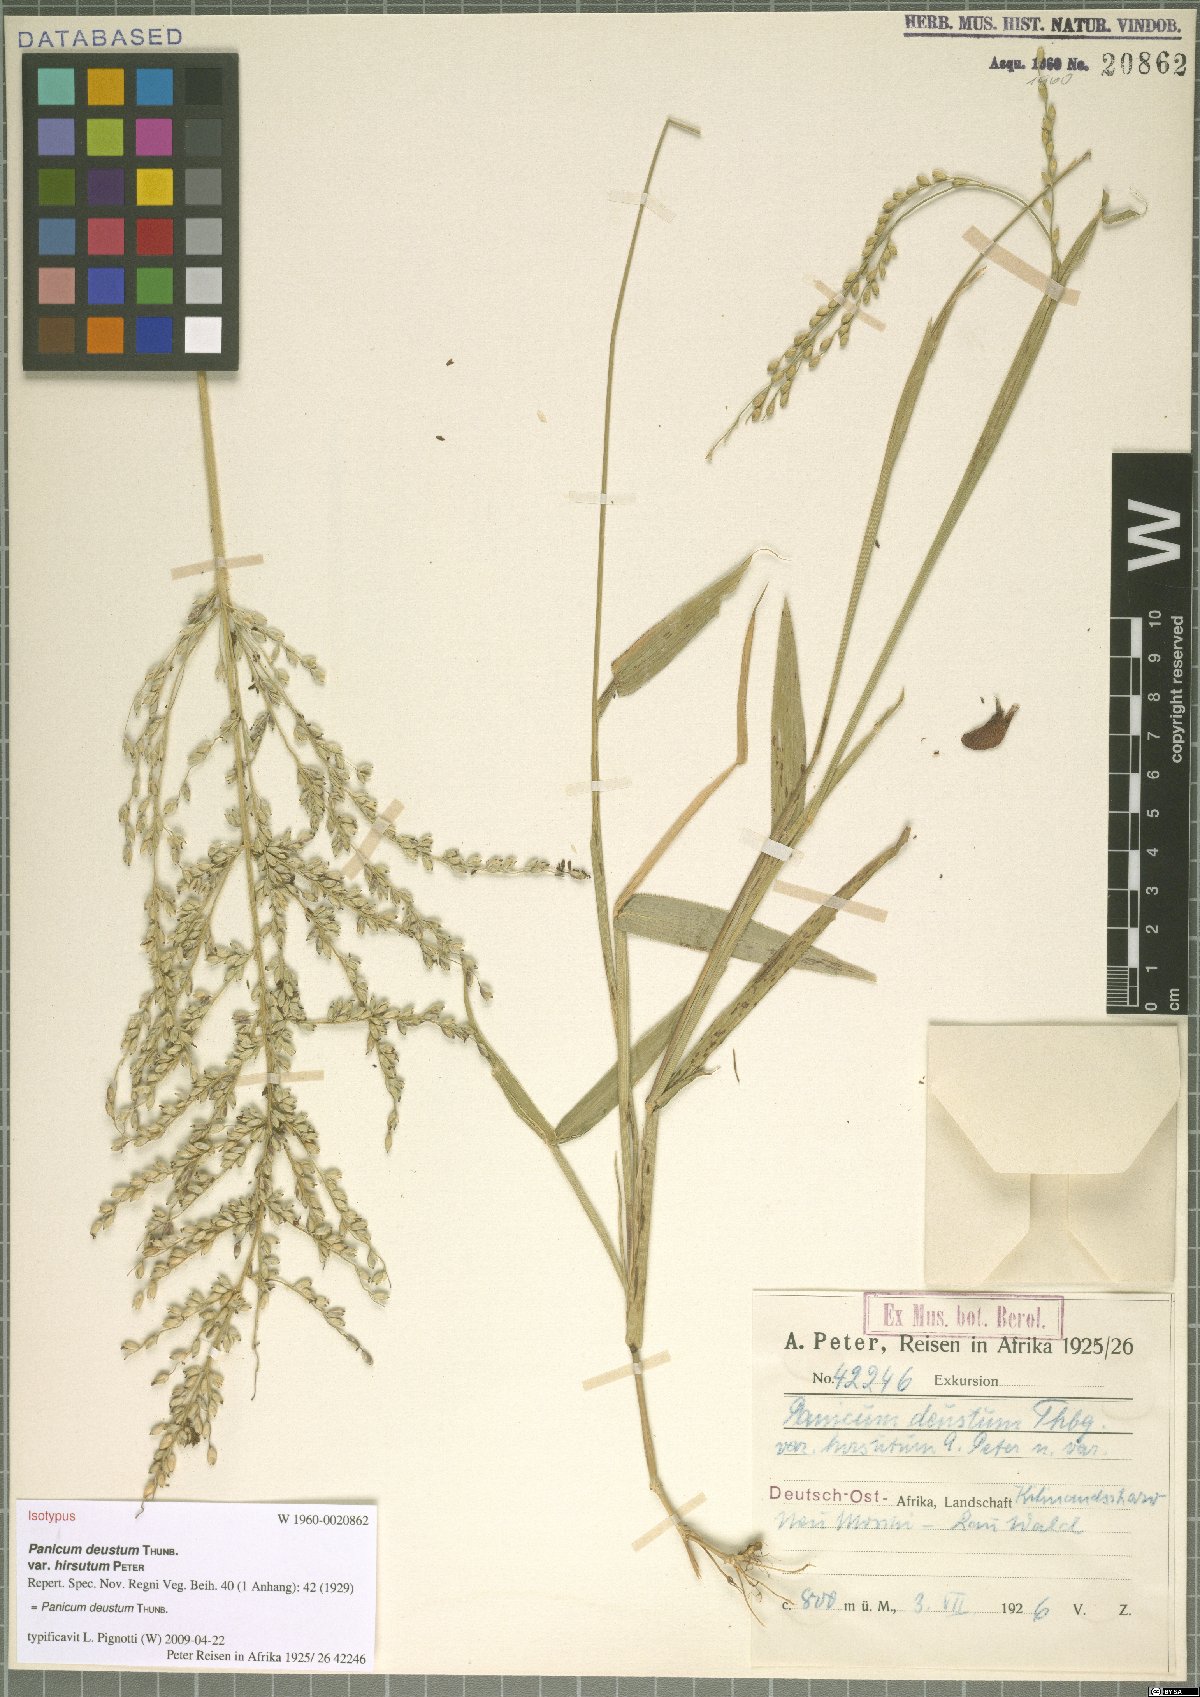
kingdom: Plantae
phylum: Tracheophyta
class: Liliopsida
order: Poales
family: Poaceae
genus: Panicum
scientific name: Panicum deustum
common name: Reed panicum
